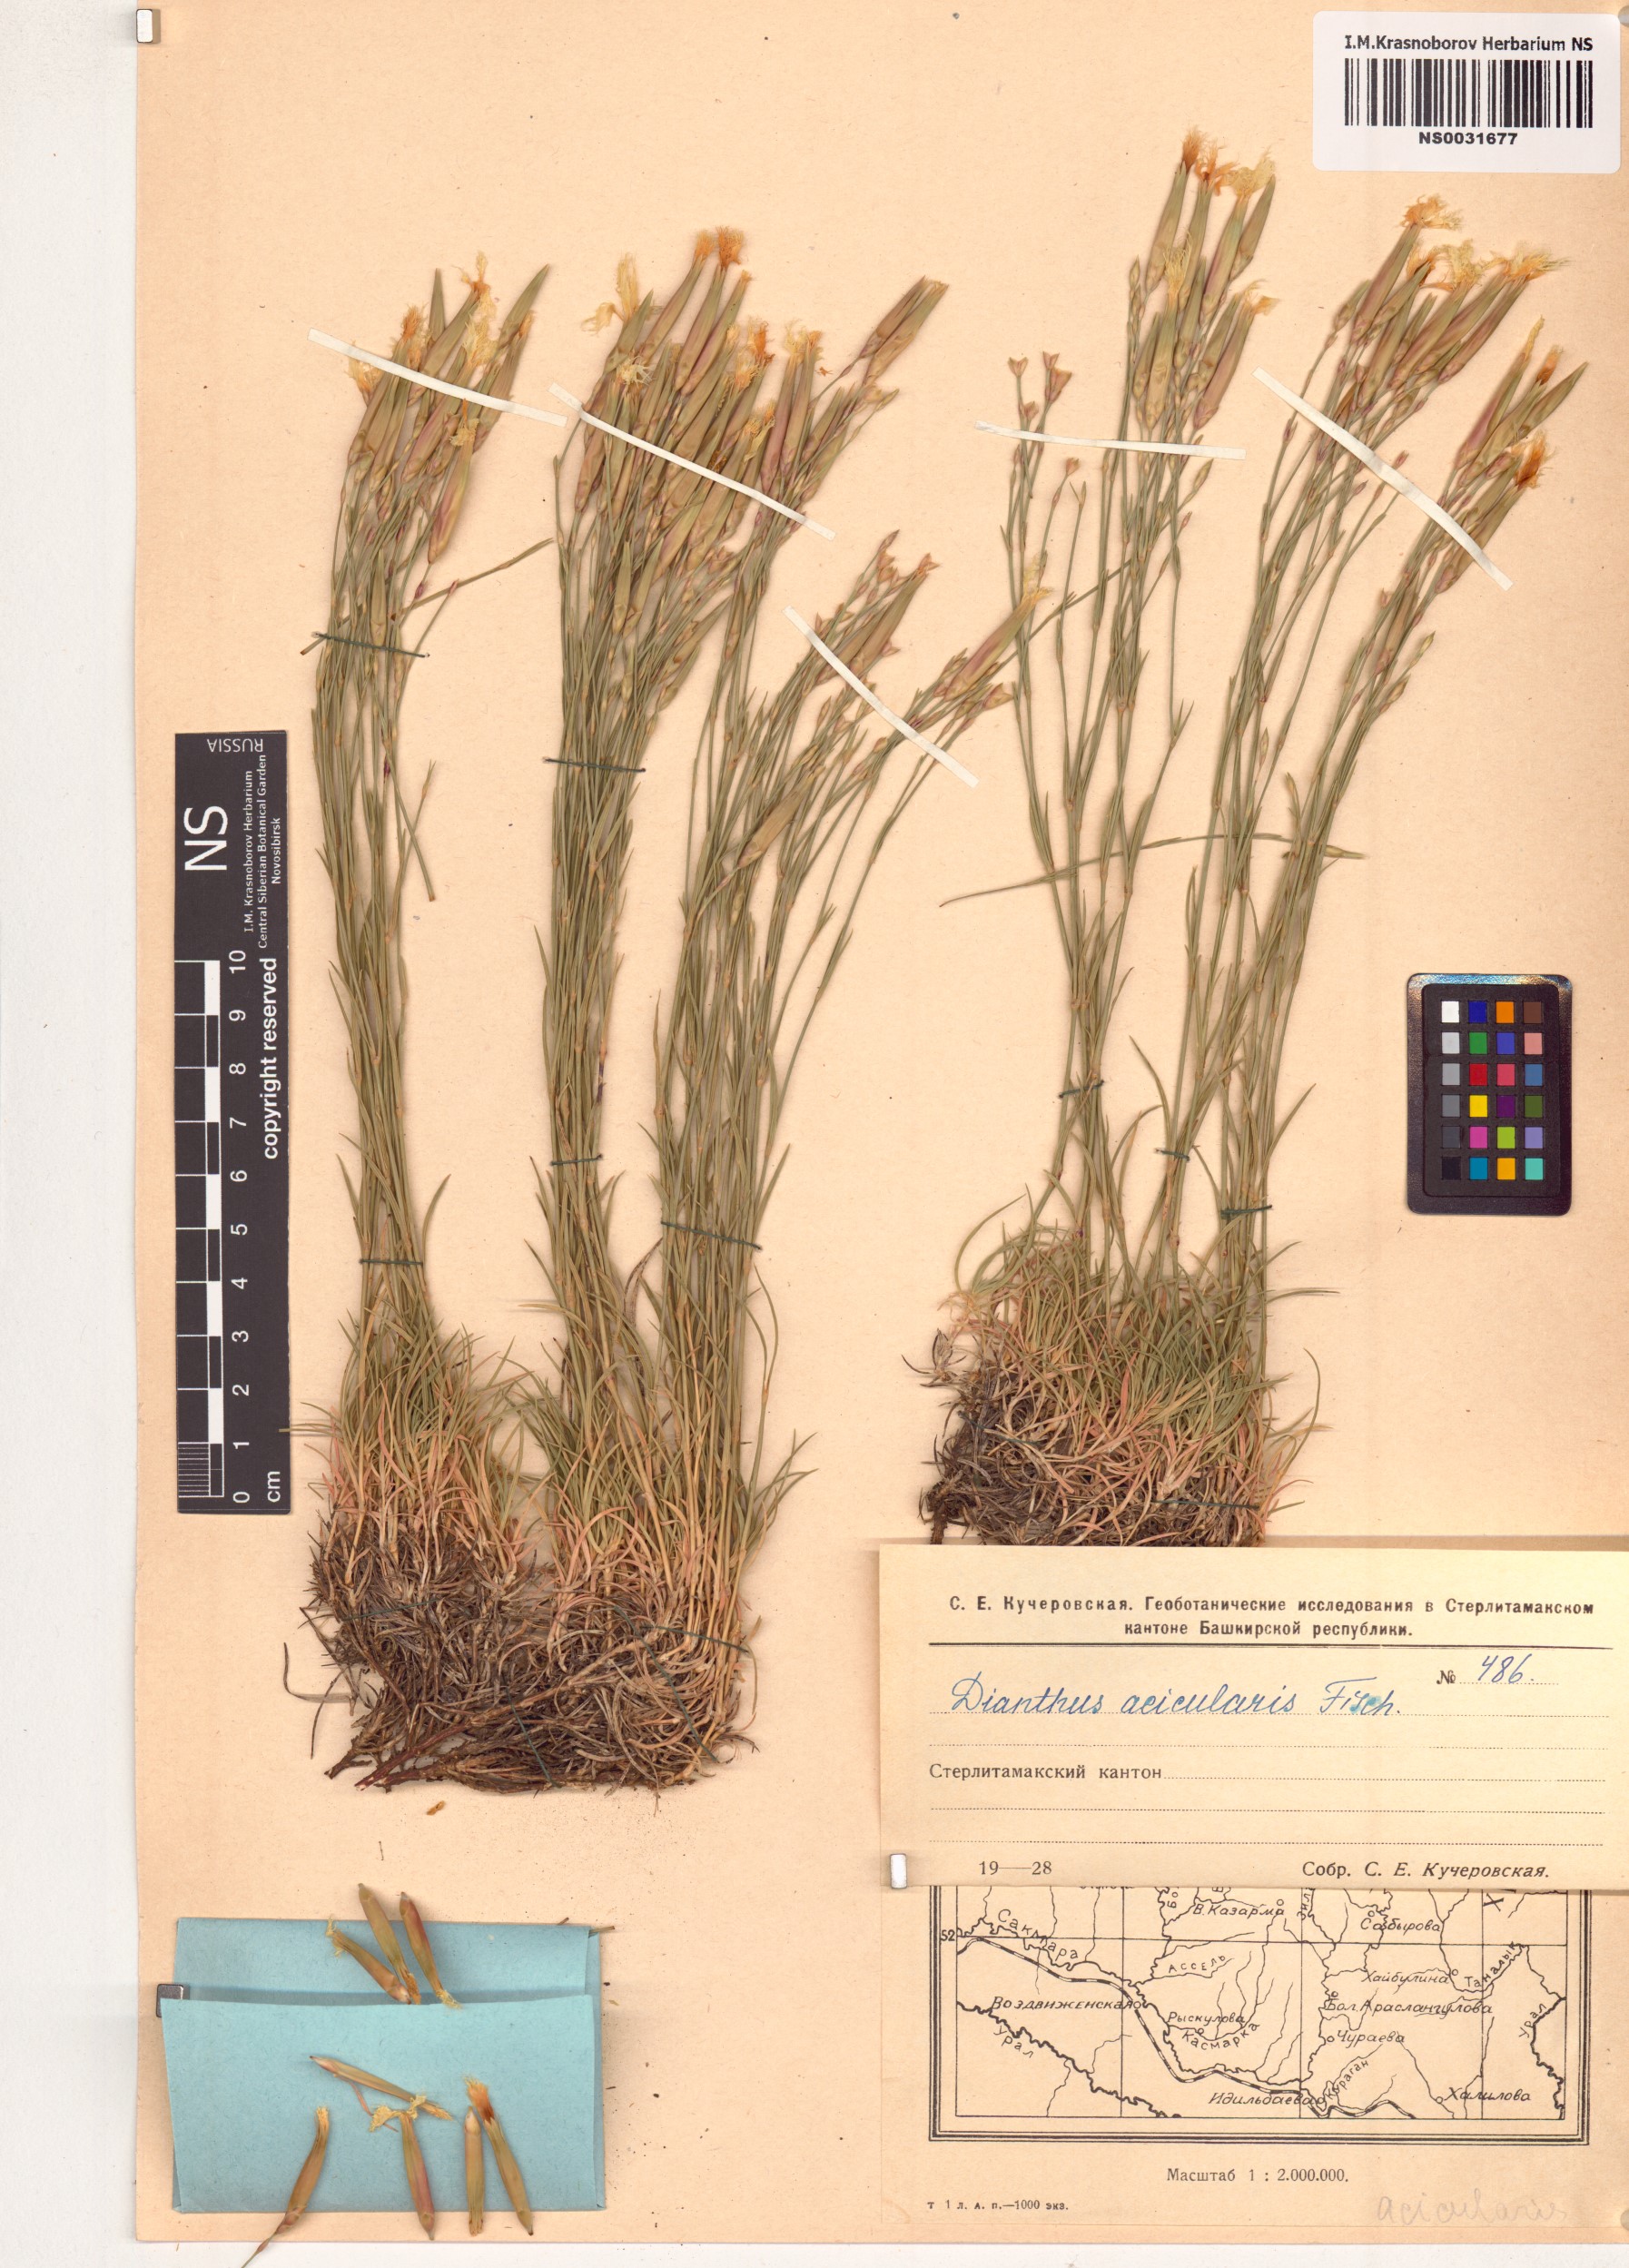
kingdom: Plantae
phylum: Tracheophyta
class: Magnoliopsida
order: Caryophyllales
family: Caryophyllaceae
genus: Dianthus
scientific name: Dianthus acicularis
